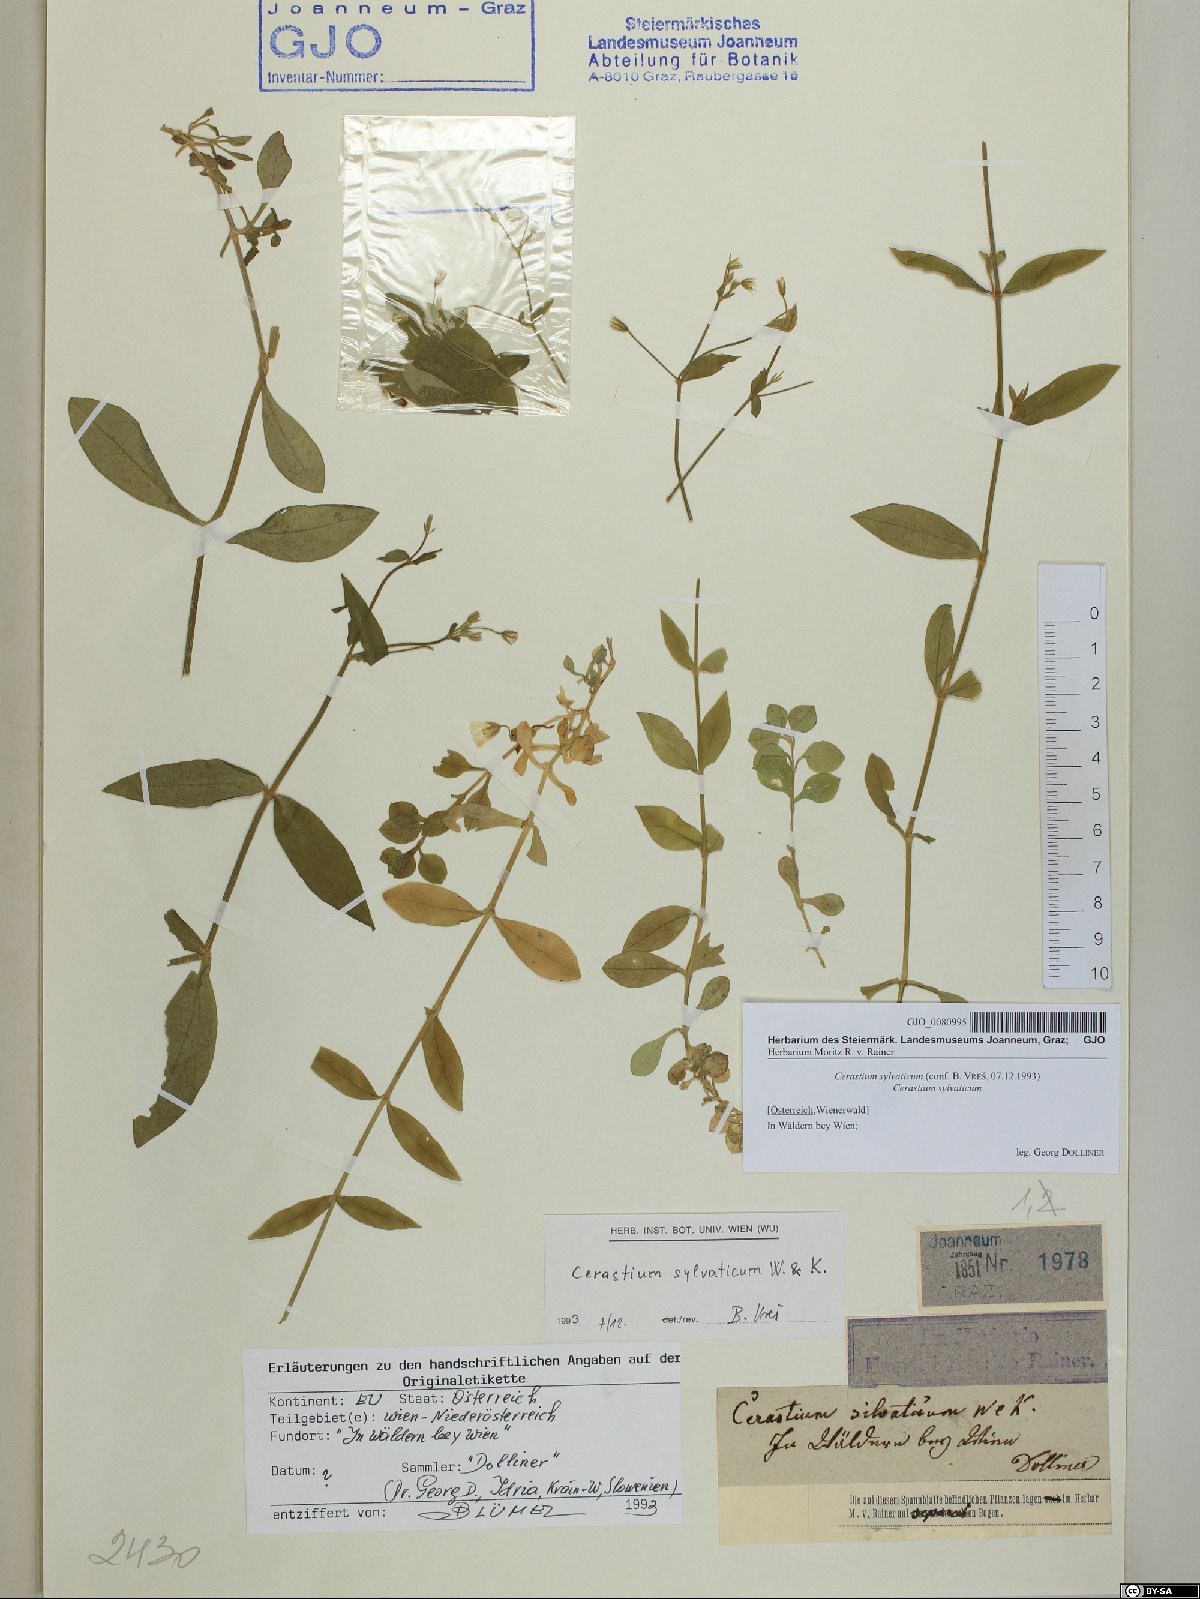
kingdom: Plantae
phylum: Tracheophyta
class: Magnoliopsida
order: Caryophyllales
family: Caryophyllaceae
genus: Cerastium
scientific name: Cerastium sylvaticum
